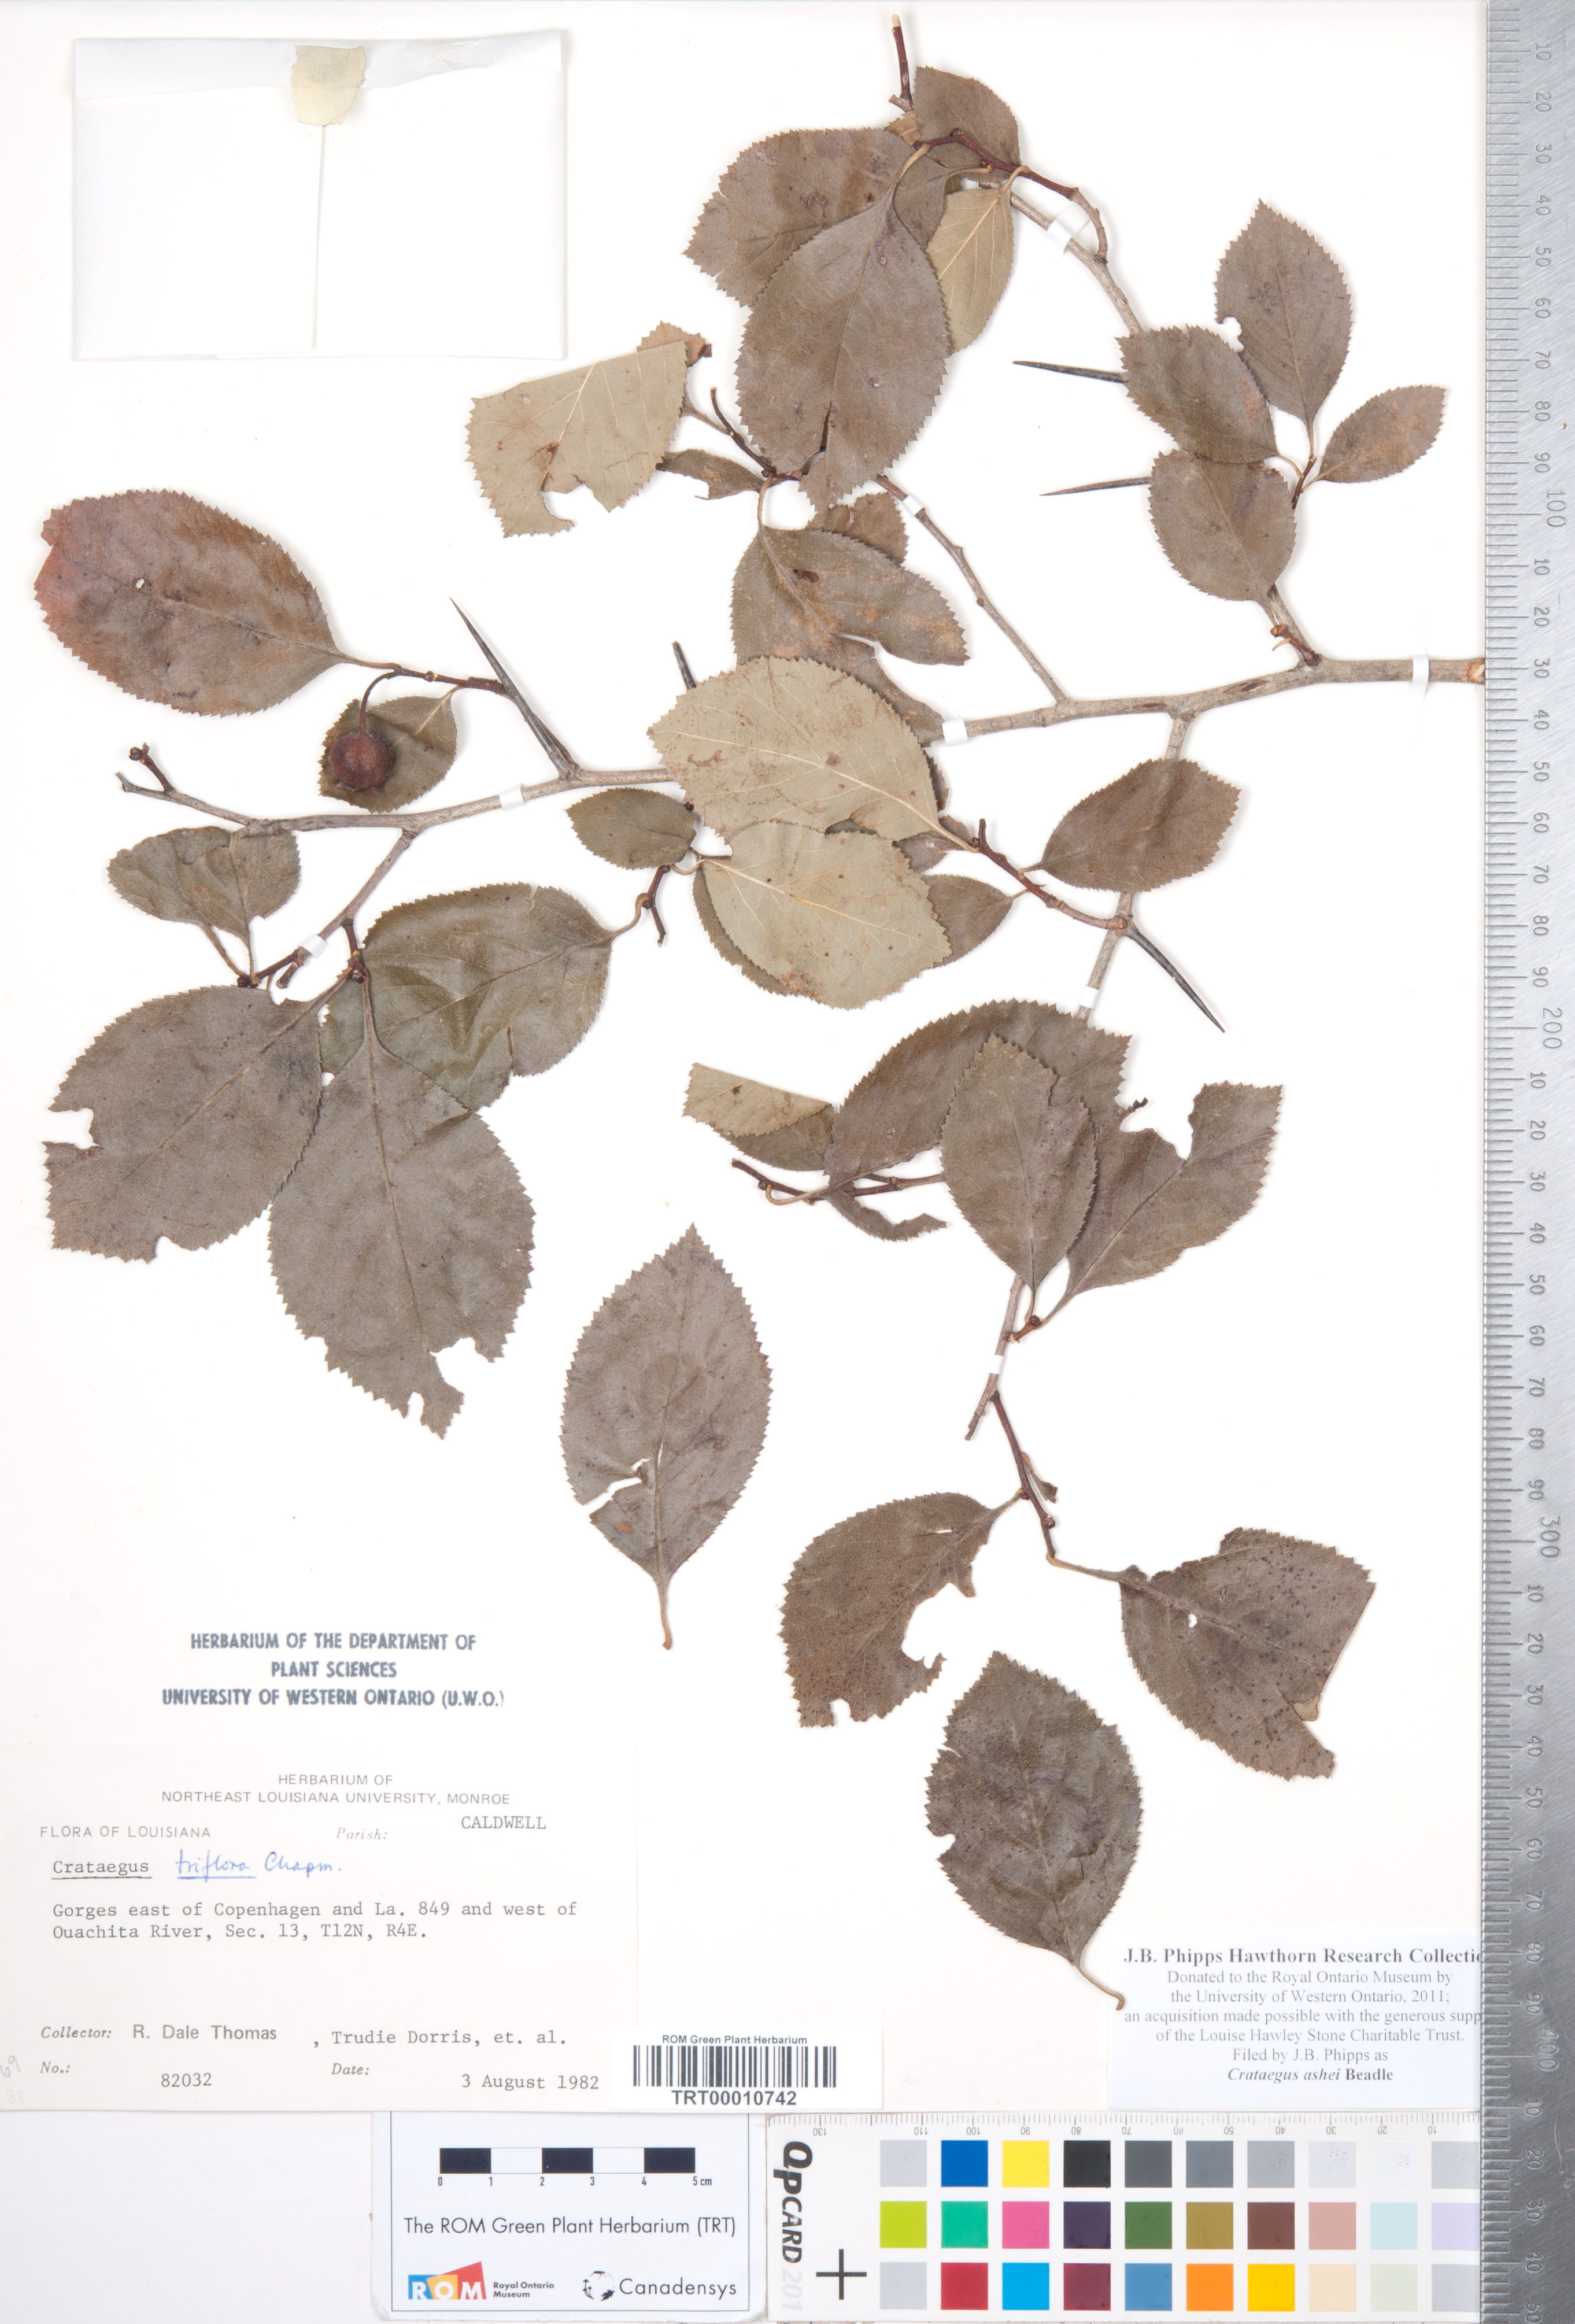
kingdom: Plantae
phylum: Tracheophyta
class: Magnoliopsida
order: Rosales
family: Rosaceae
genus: Crataegus
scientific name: Crataegus ashei
